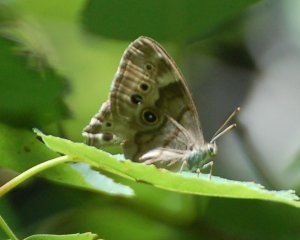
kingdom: Animalia
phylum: Arthropoda
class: Insecta
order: Lepidoptera
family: Nymphalidae
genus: Lethe
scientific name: Lethe anthedon
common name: Northern Pearly-Eye
